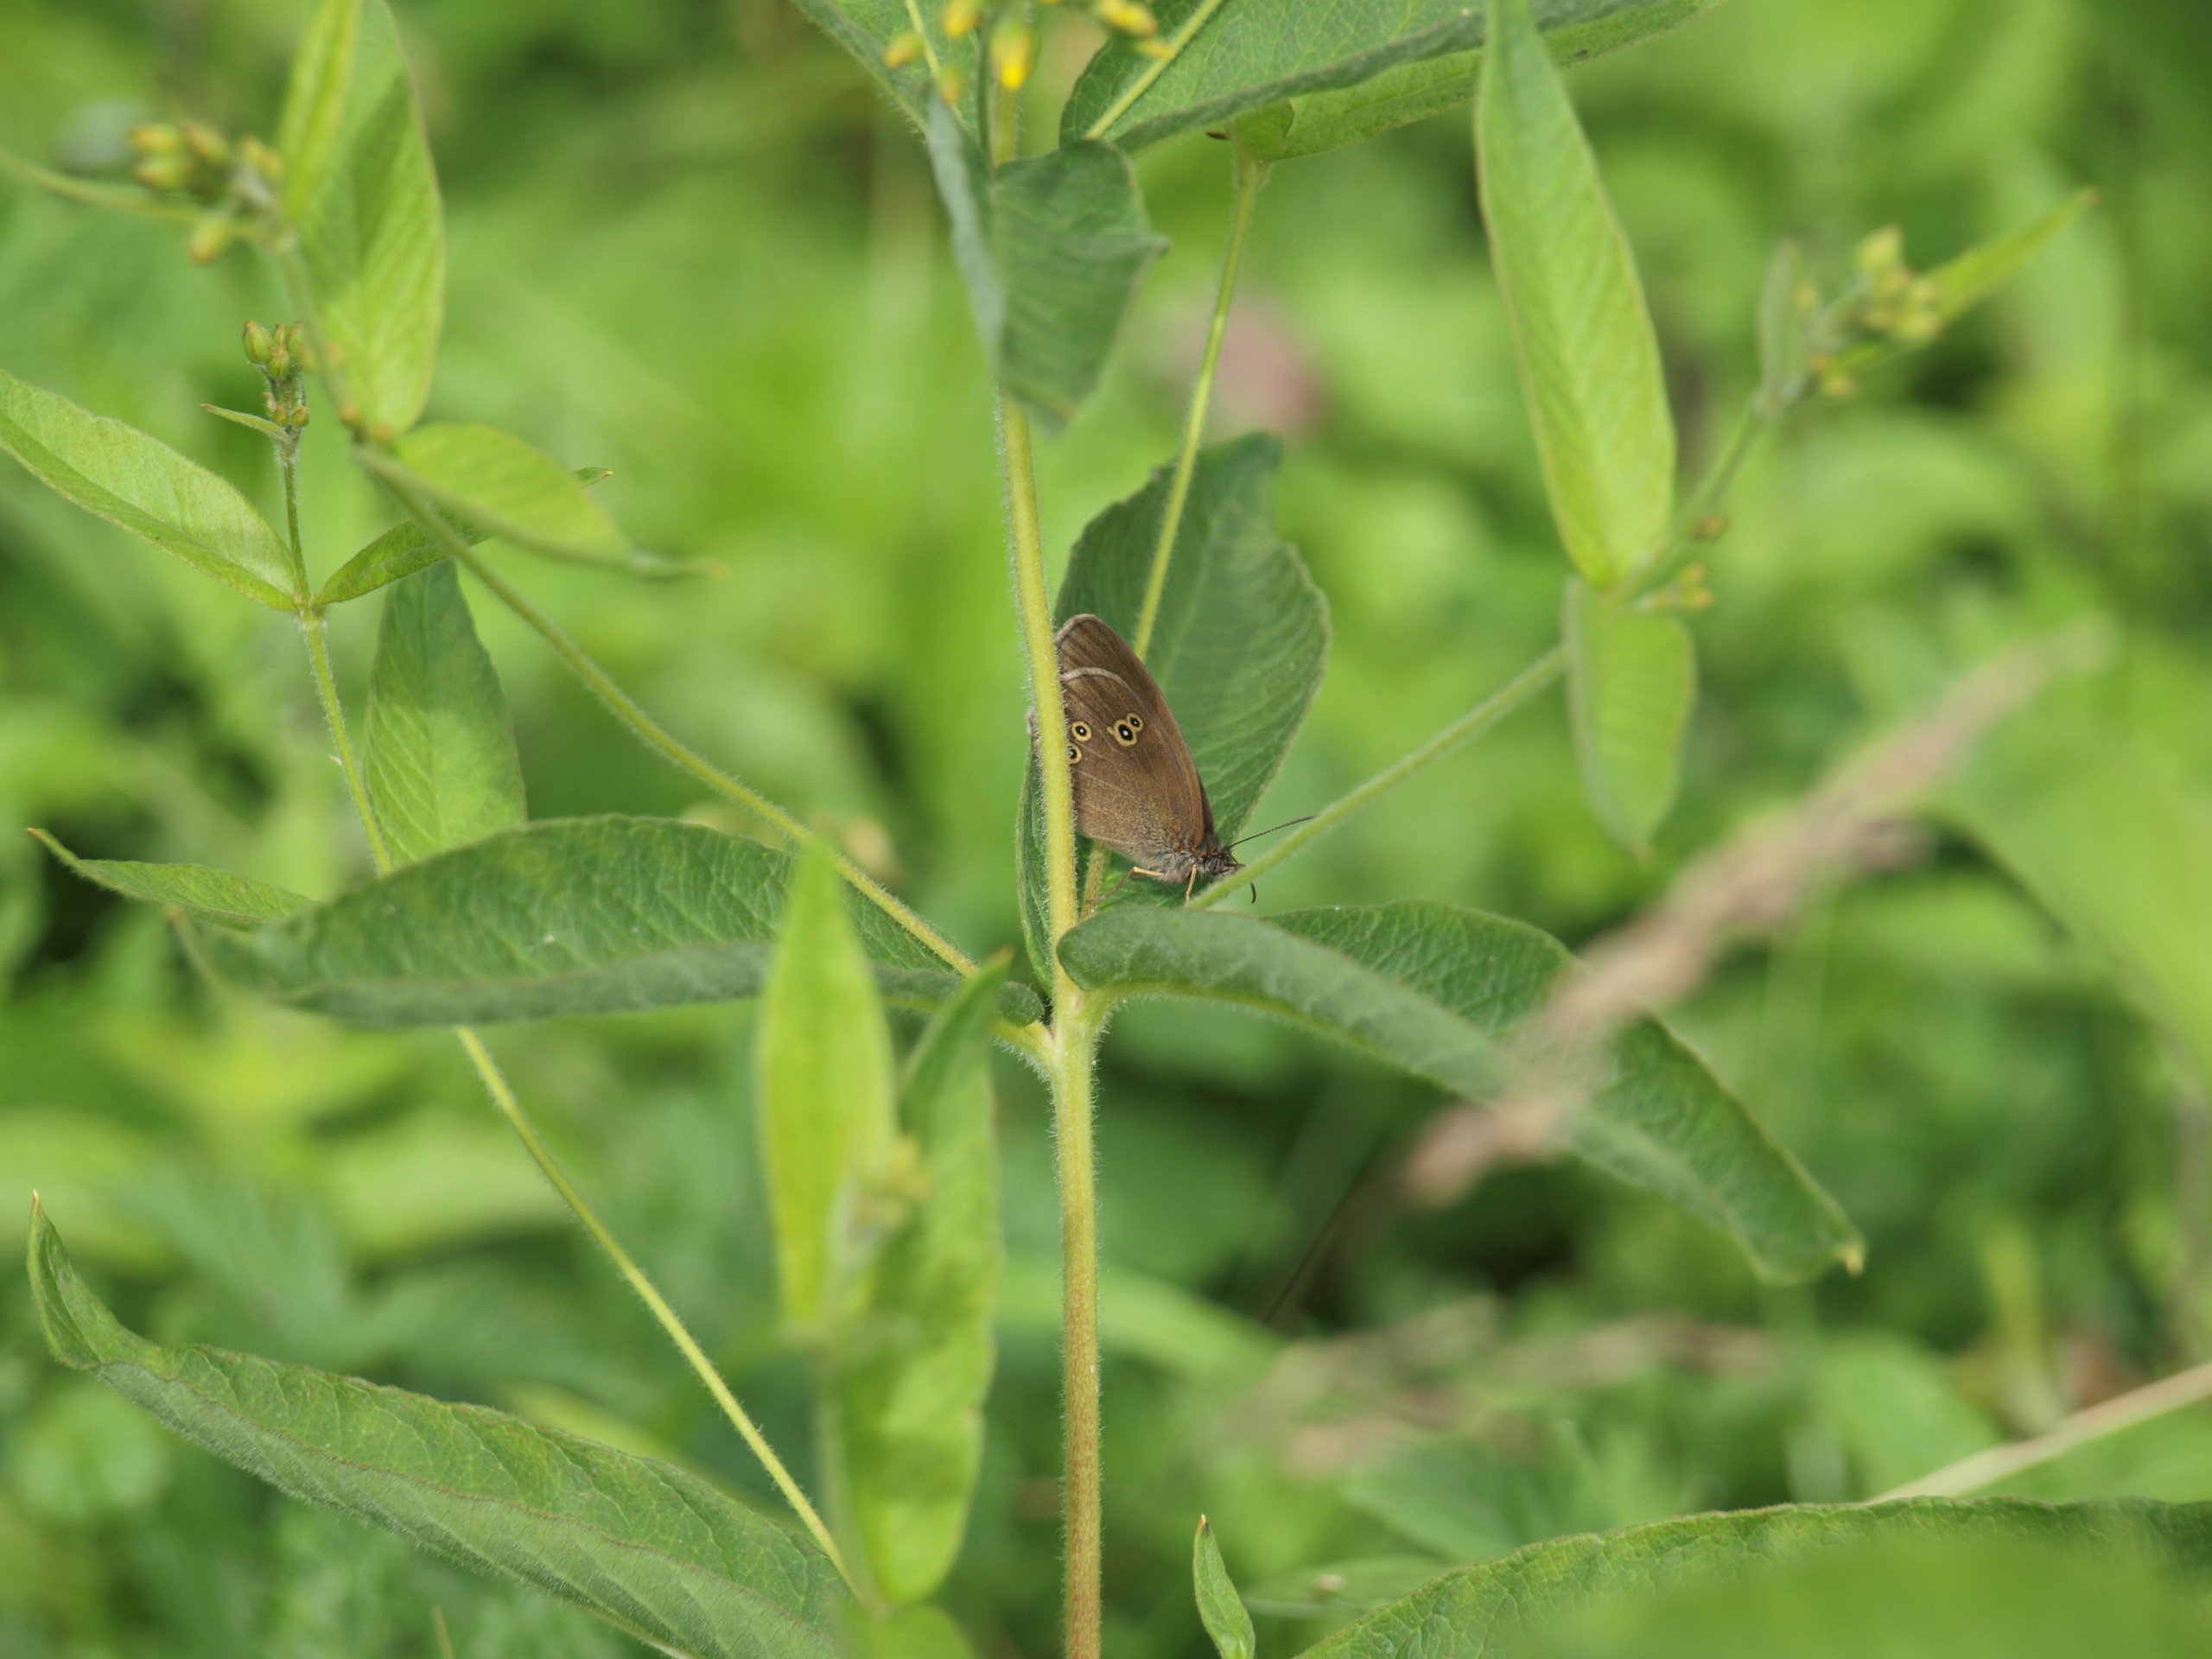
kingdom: Animalia
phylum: Arthropoda
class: Insecta
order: Lepidoptera
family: Nymphalidae
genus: Aphantopus
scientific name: Aphantopus hyperantus
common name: Engrandøje
